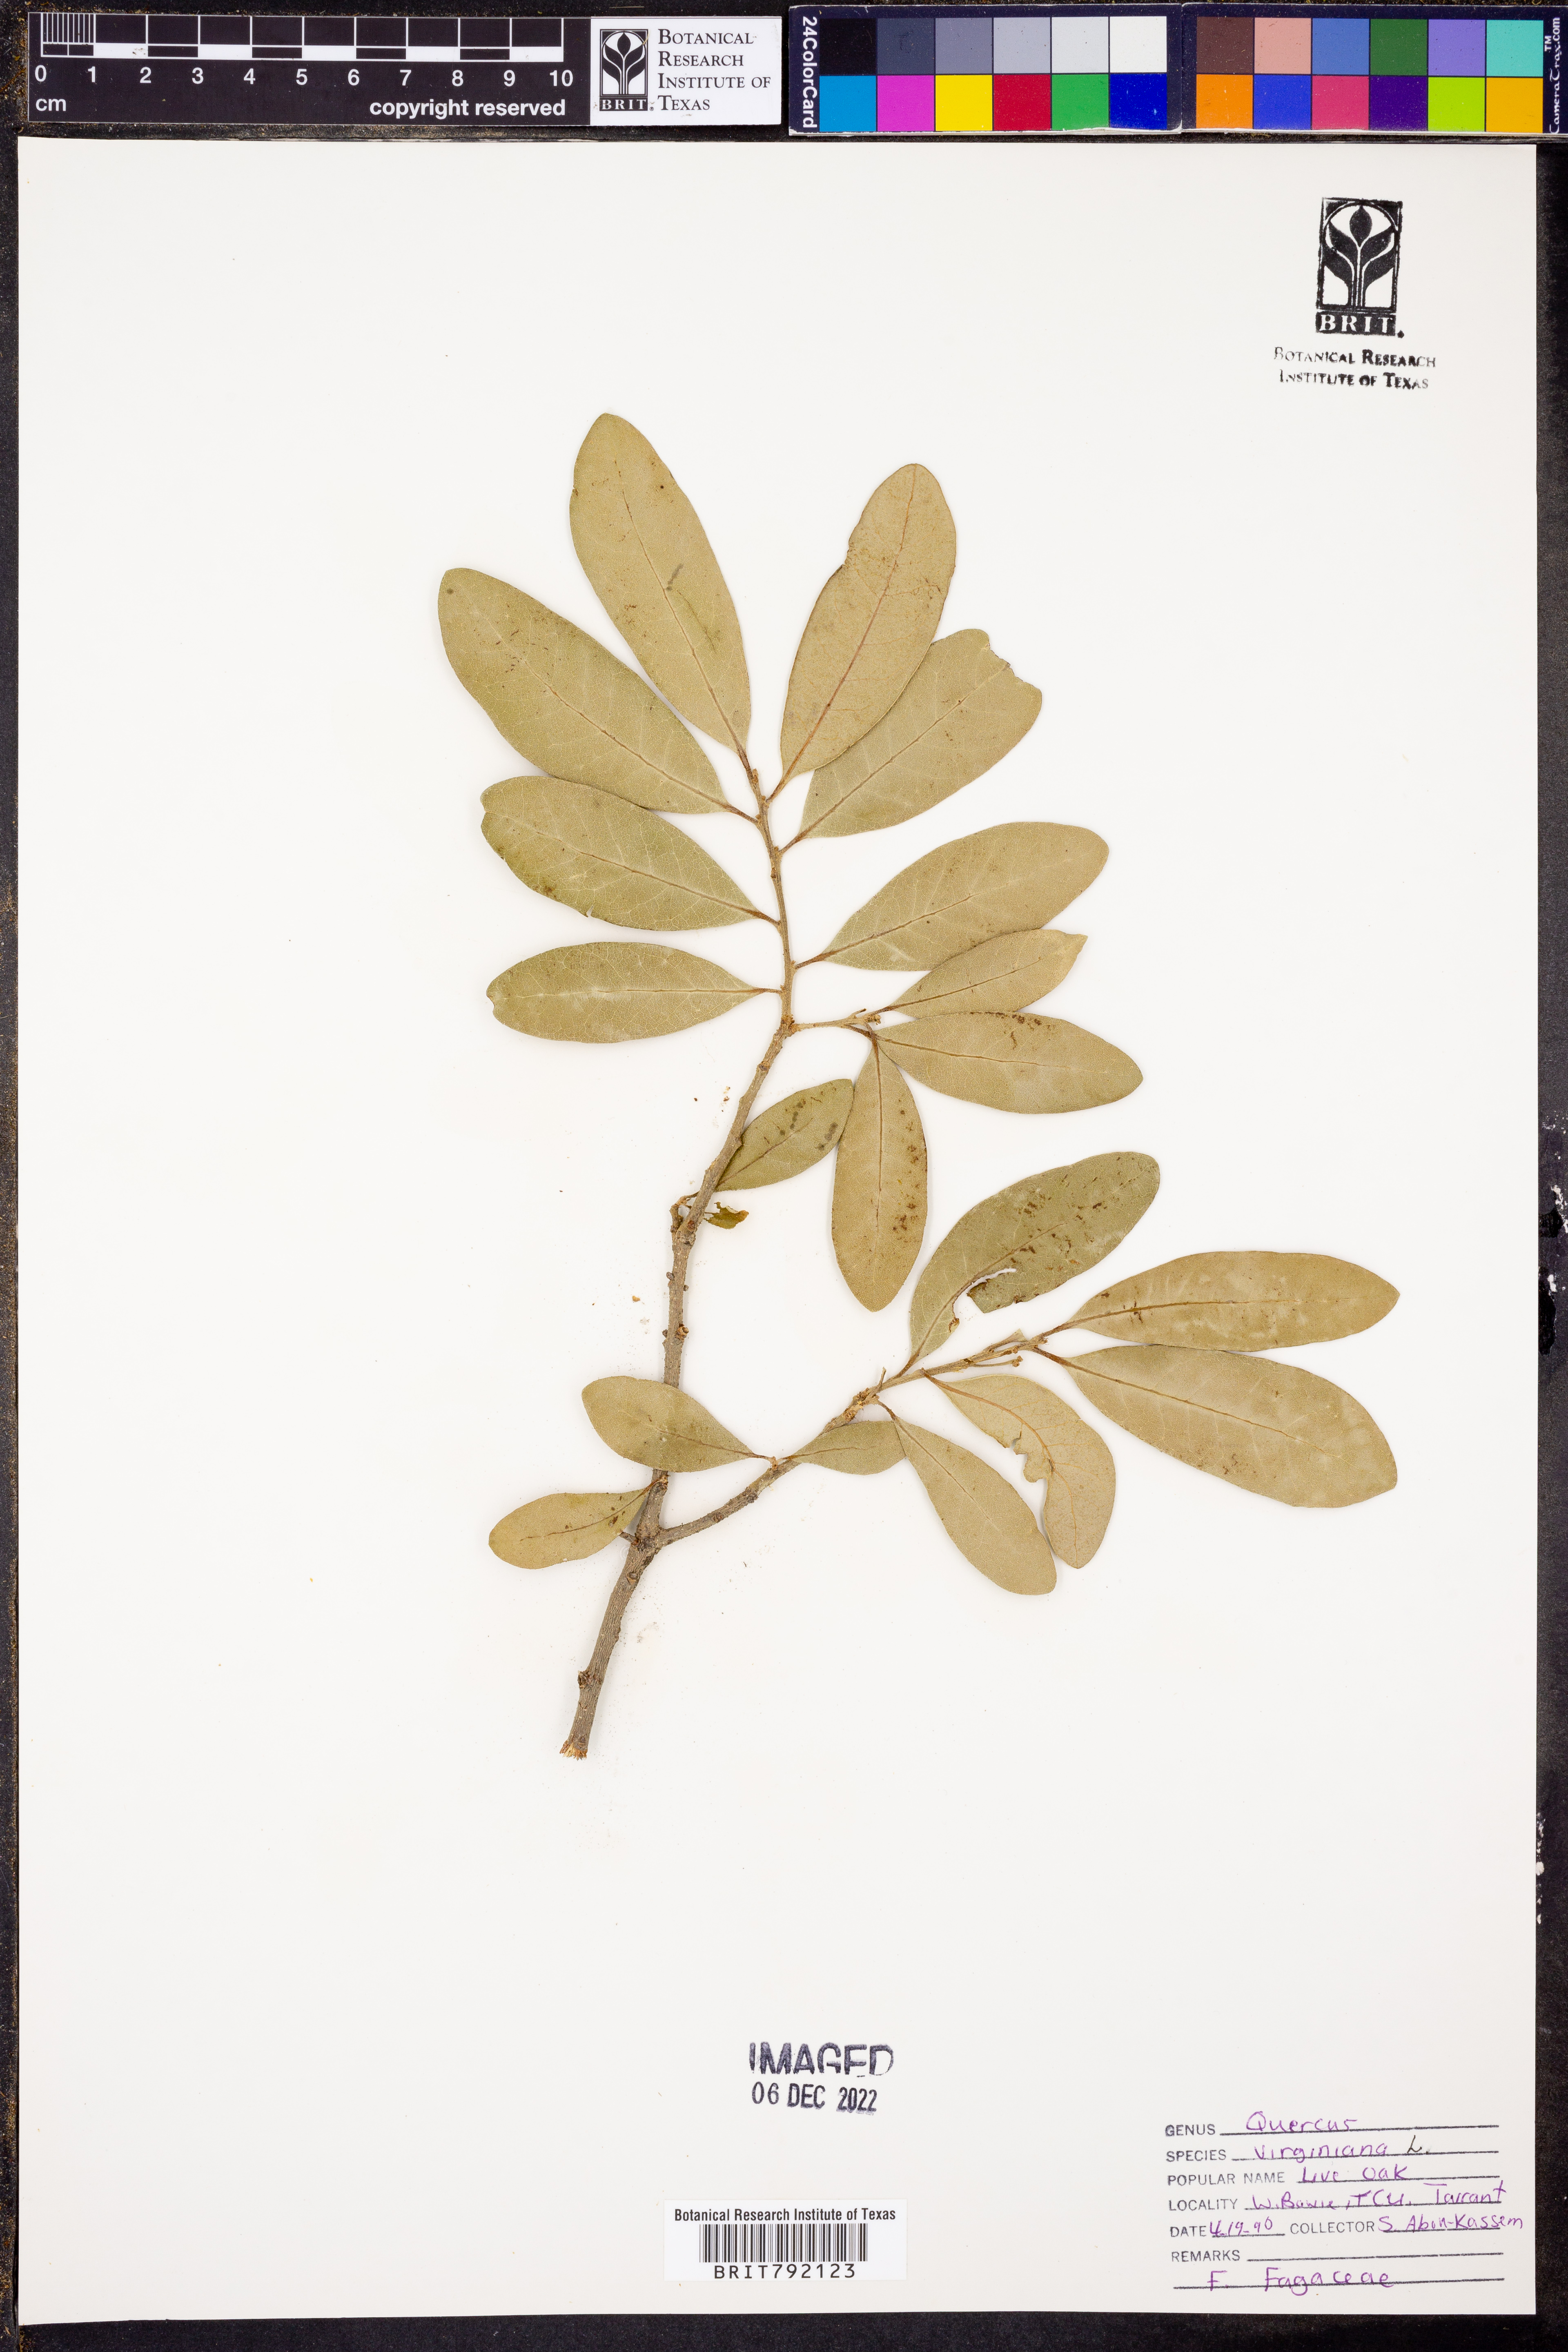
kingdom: Plantae
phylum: Tracheophyta
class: Magnoliopsida
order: Fagales
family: Fagaceae
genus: Quercus
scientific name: Quercus virginiana
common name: Southern live oak
